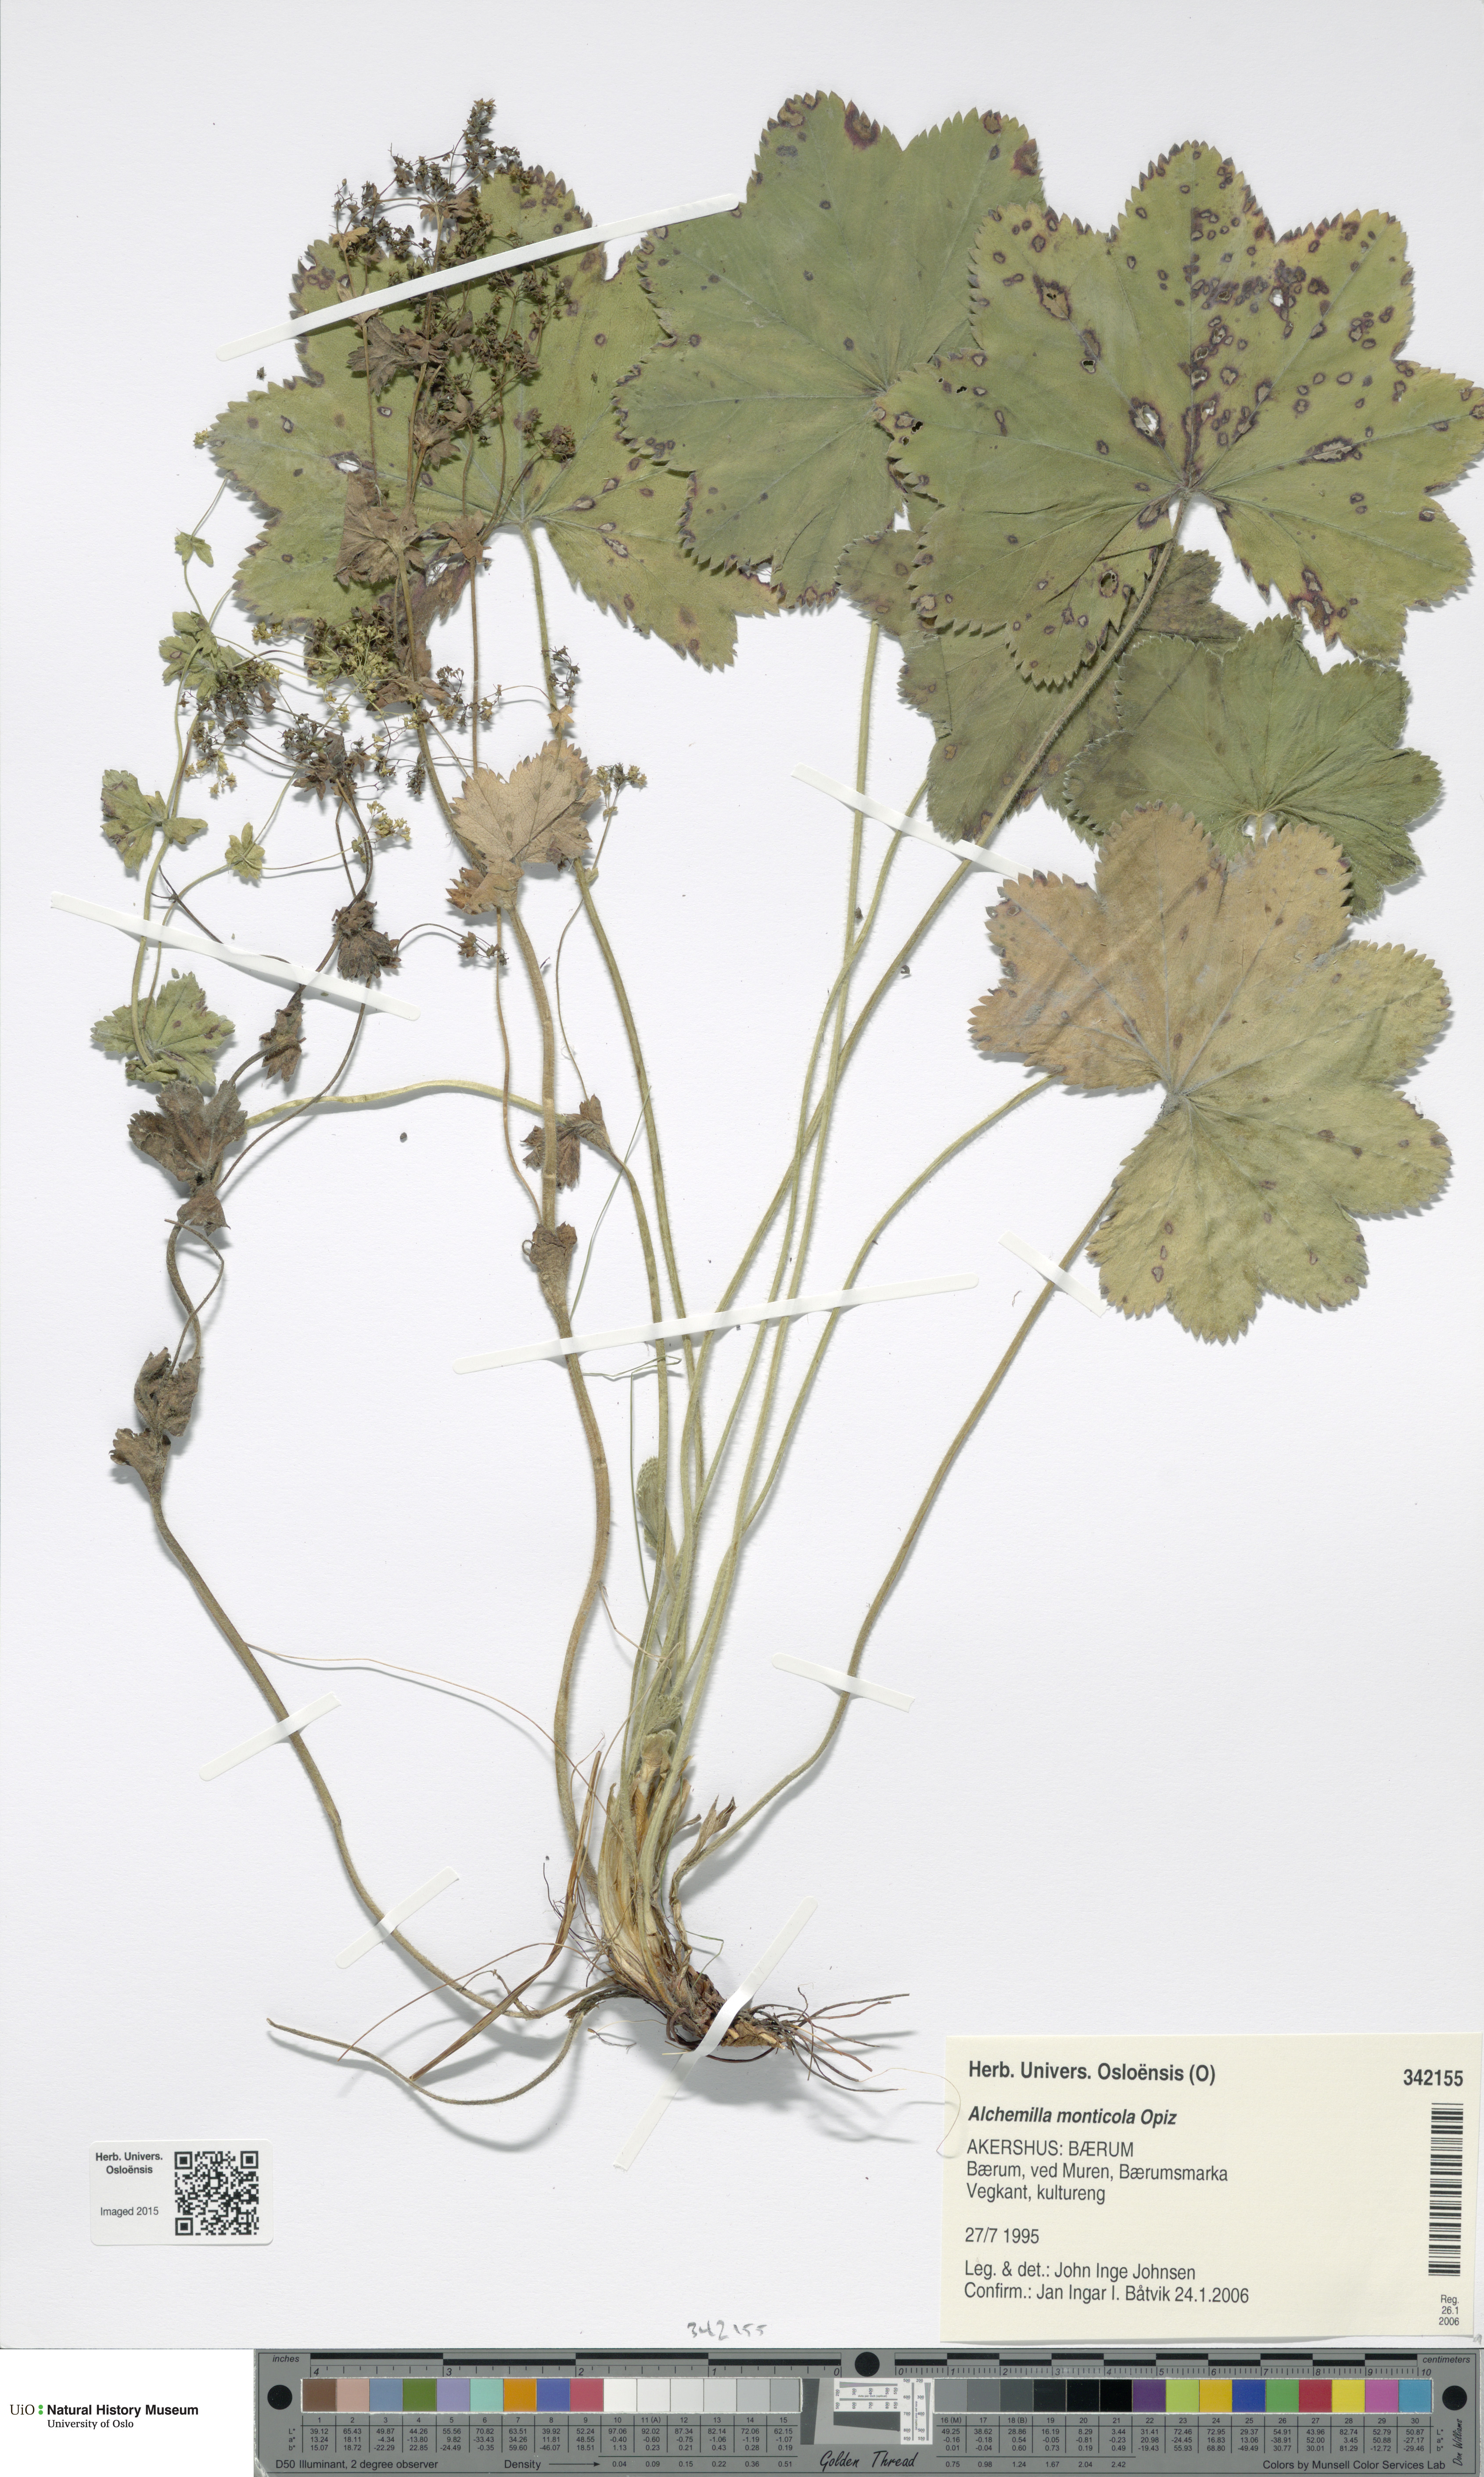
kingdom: Plantae
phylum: Tracheophyta
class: Magnoliopsida
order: Rosales
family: Rosaceae
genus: Alchemilla
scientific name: Alchemilla monticola
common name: Hairy lady's mantle
